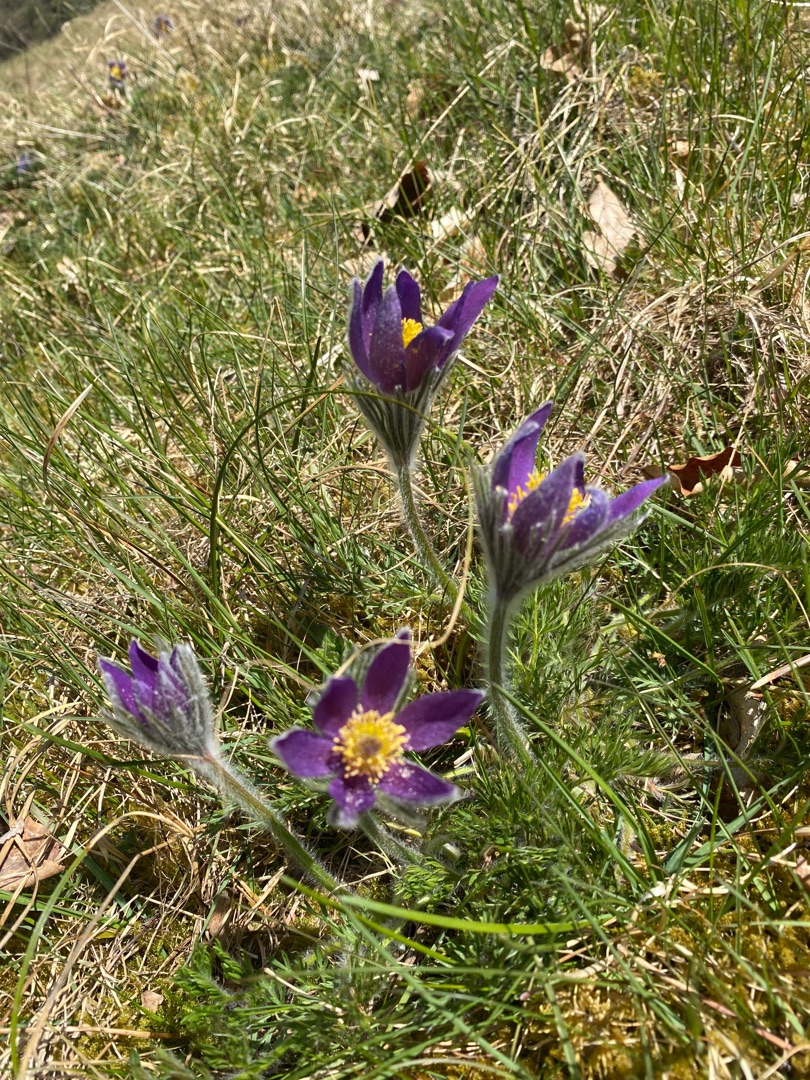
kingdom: Plantae
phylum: Tracheophyta
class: Magnoliopsida
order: Ranunculales
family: Ranunculaceae
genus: Pulsatilla
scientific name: Pulsatilla vulgaris
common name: Opret kobjælde
